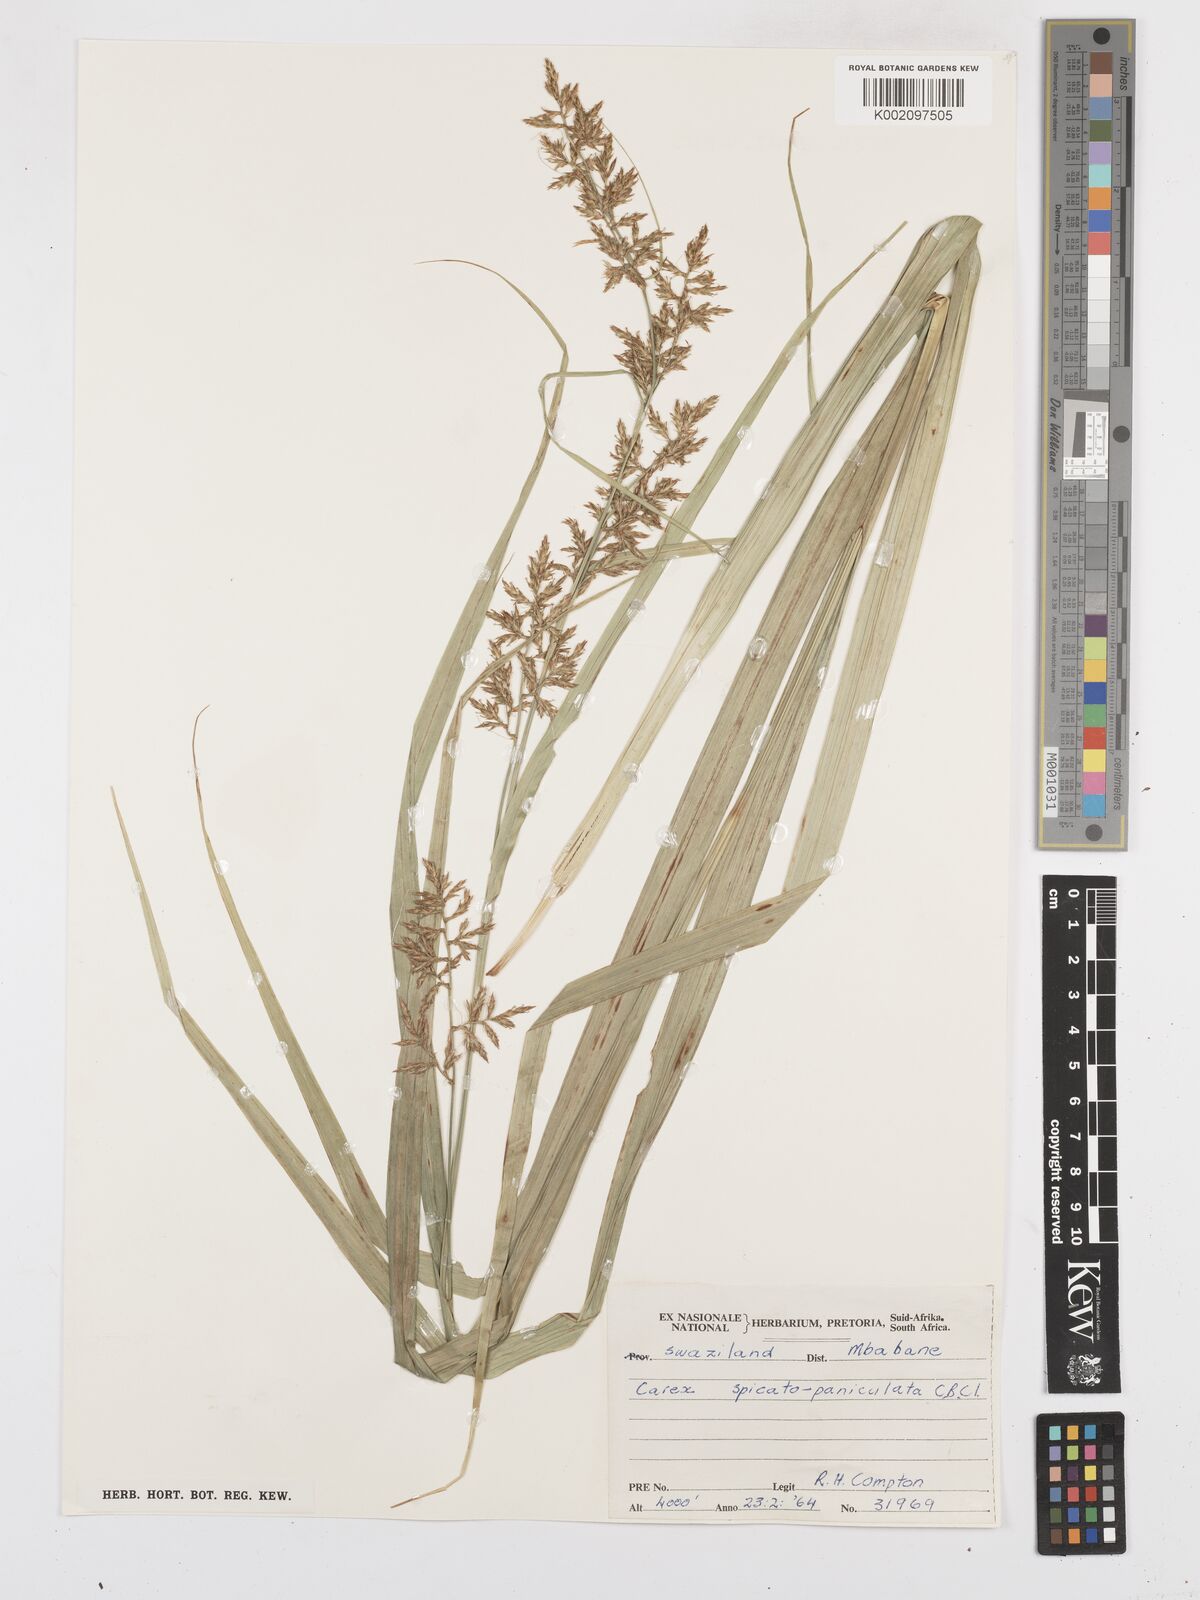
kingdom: Plantae
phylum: Tracheophyta
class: Liliopsida
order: Poales
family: Cyperaceae
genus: Carex
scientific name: Carex spicatopaniculata
